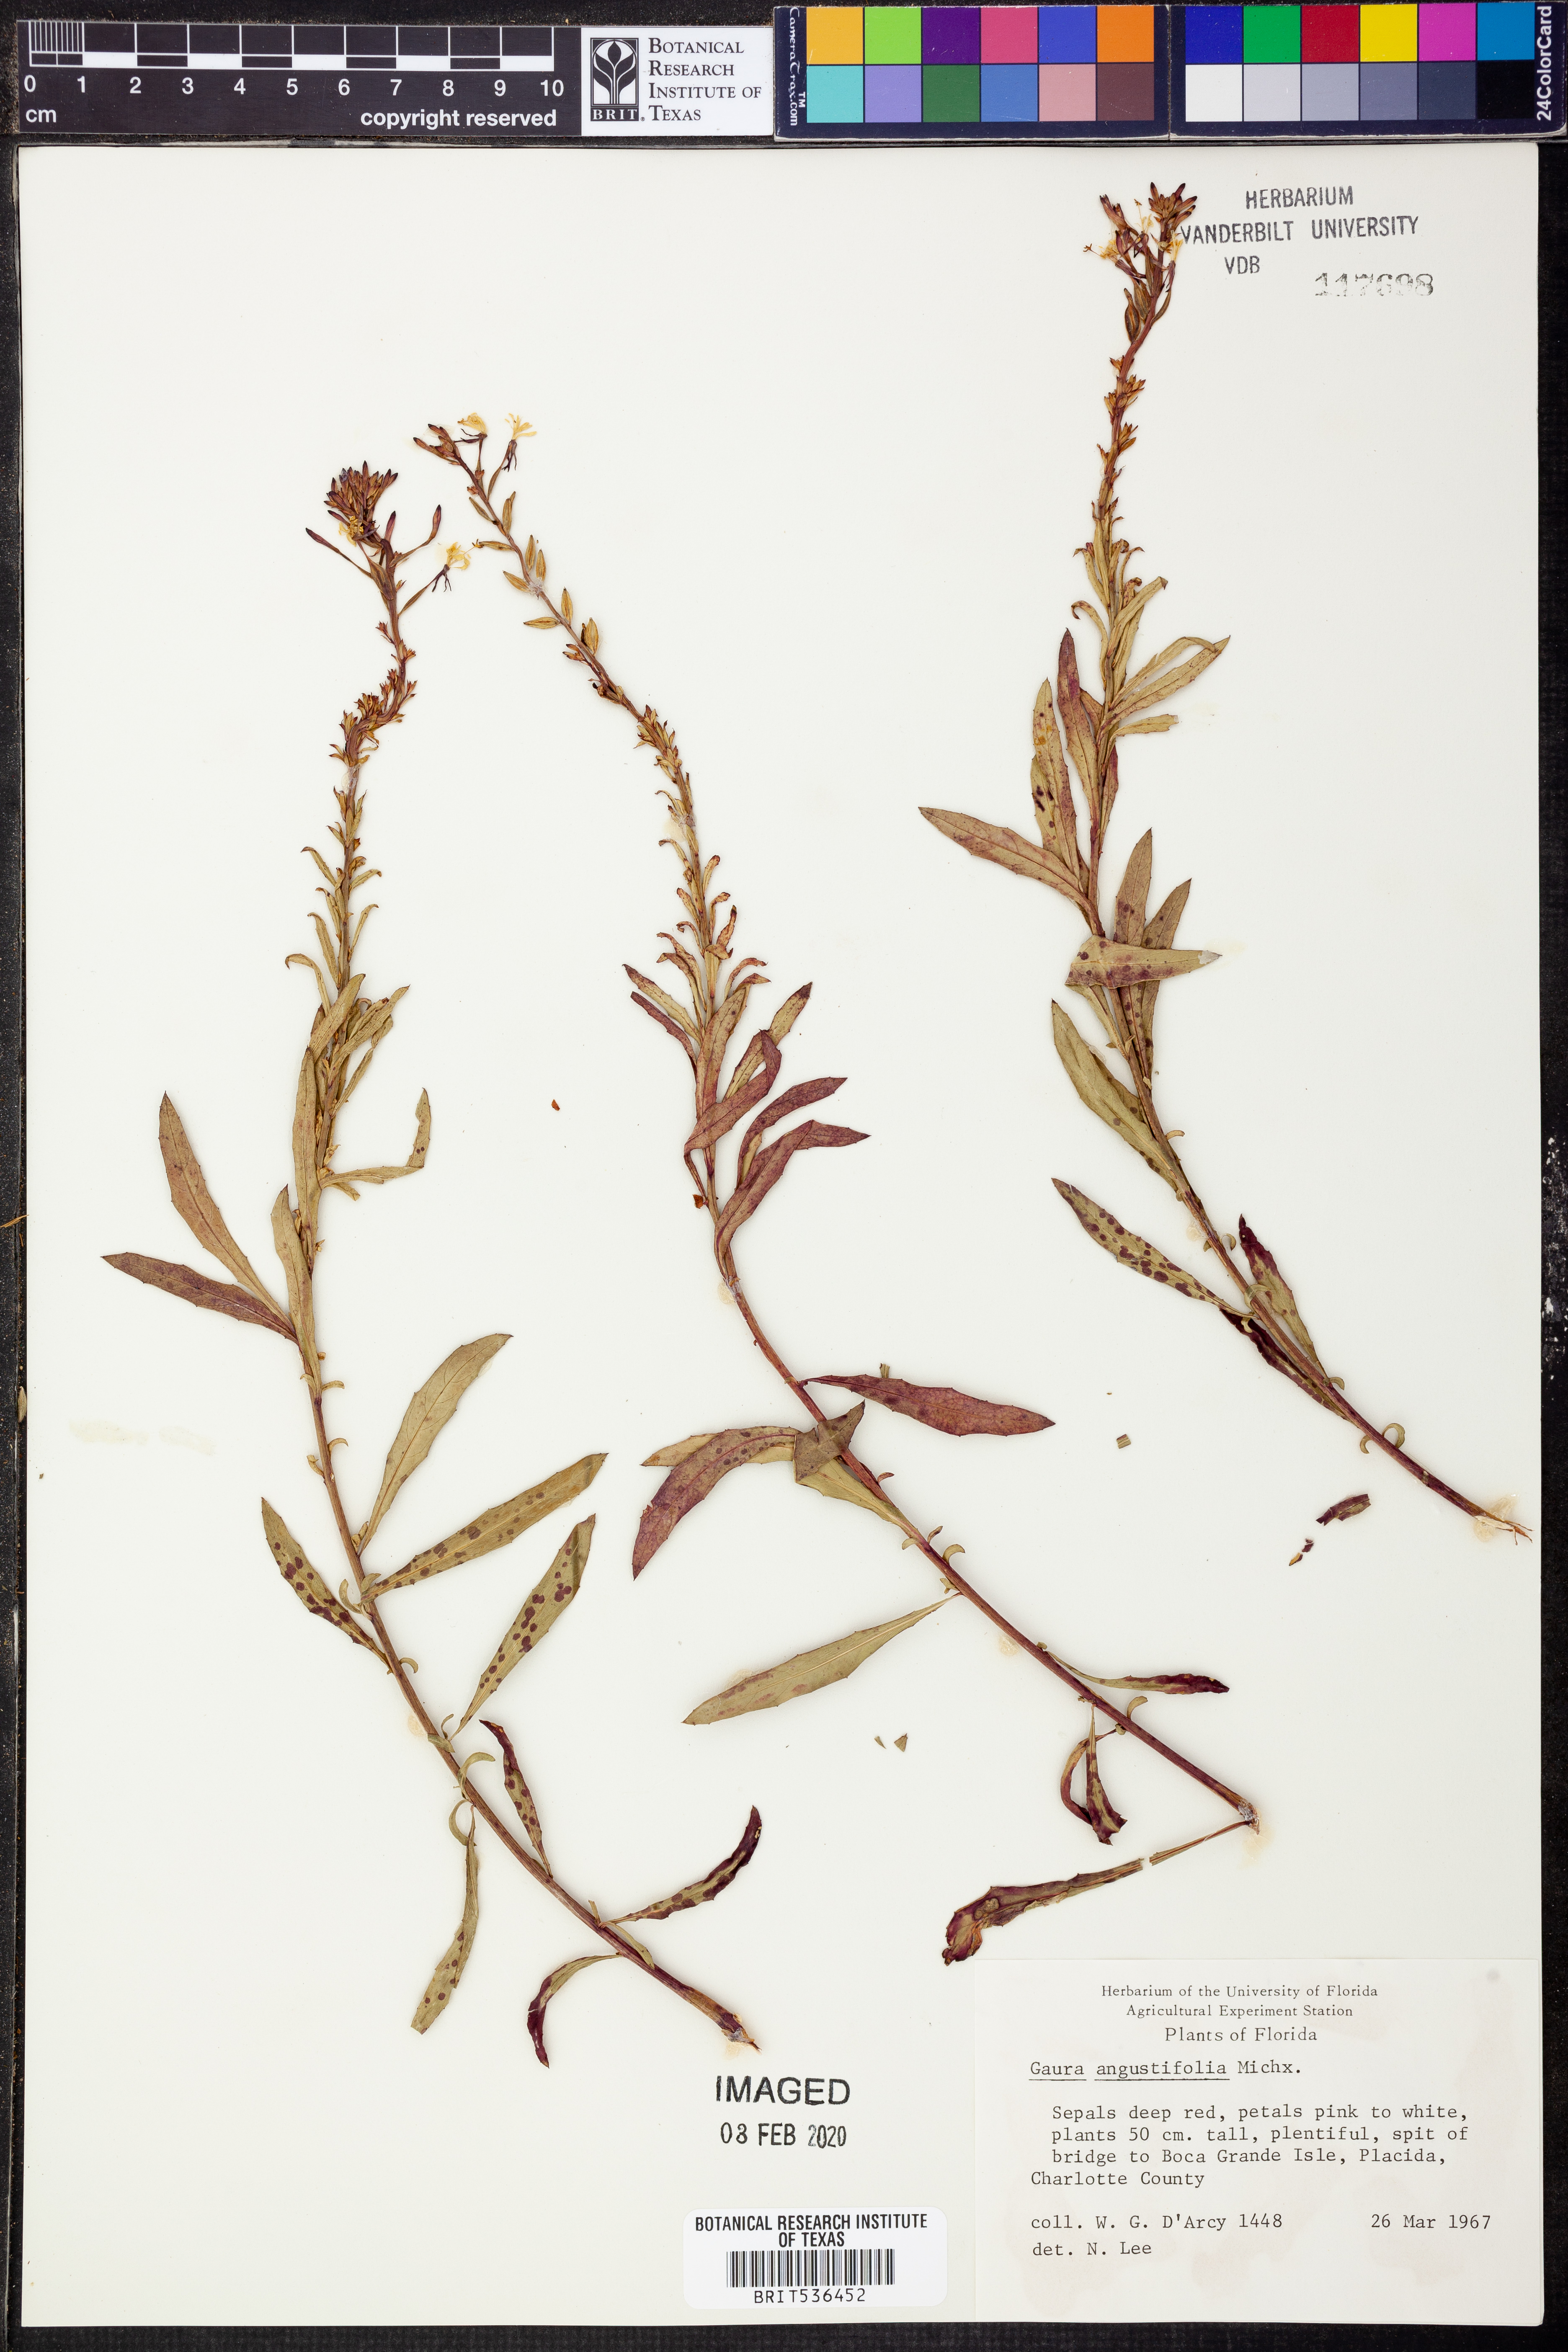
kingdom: Plantae
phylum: Tracheophyta
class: Magnoliopsida
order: Myrtales
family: Onagraceae
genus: Oenothera
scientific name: Oenothera simulans
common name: Southern beeblossom
